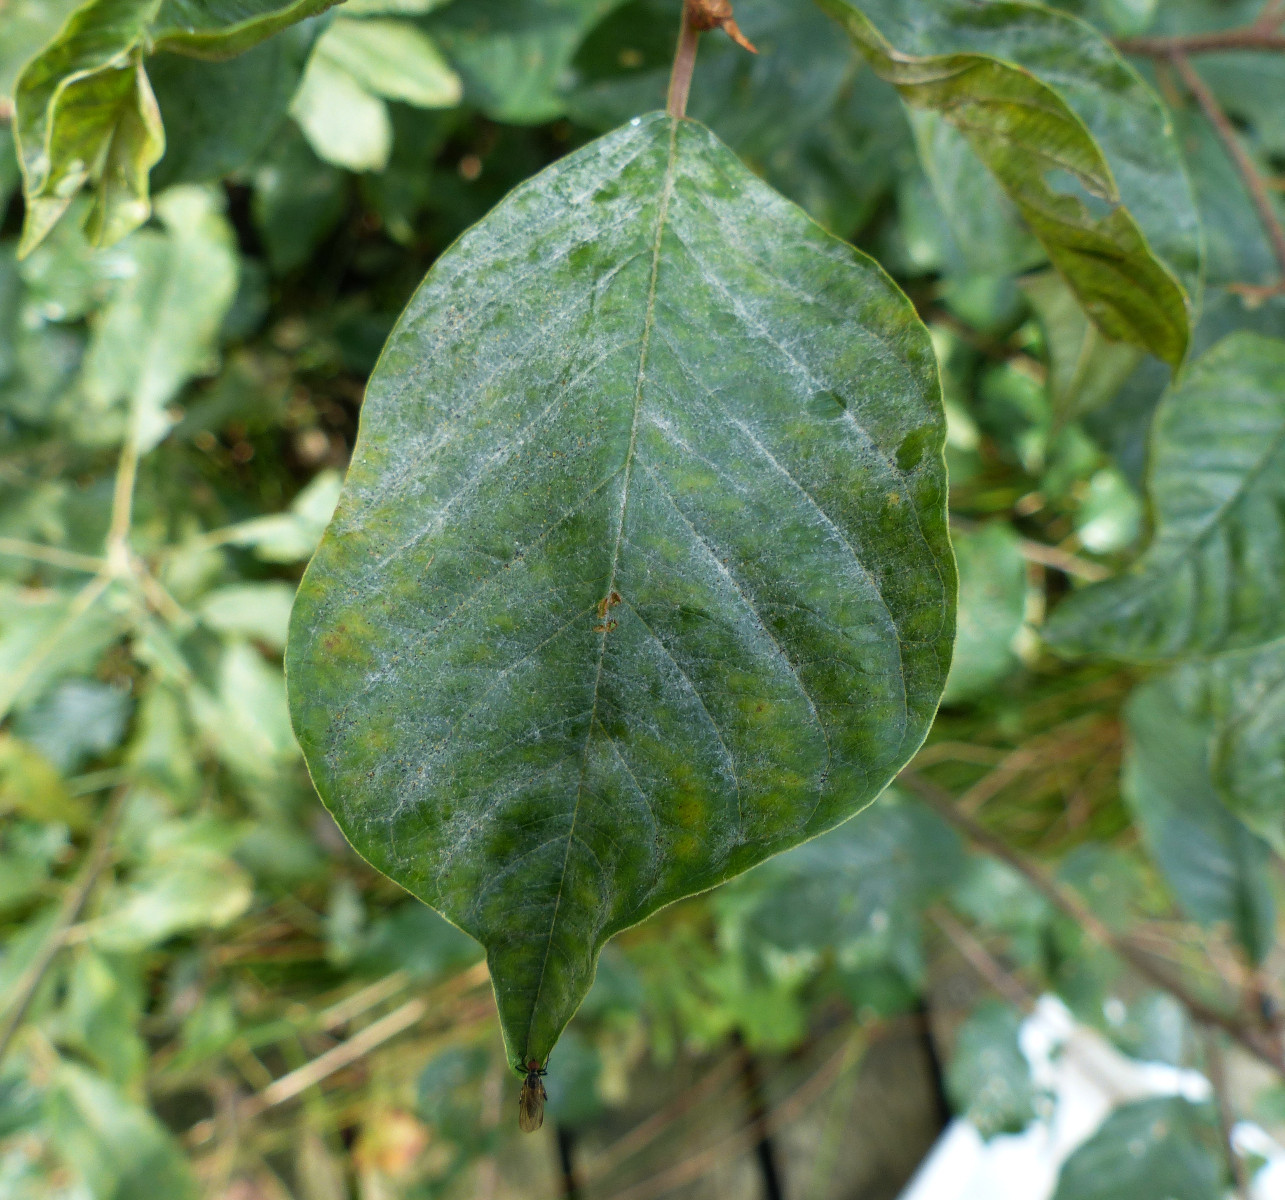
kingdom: Fungi
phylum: Ascomycota
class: Leotiomycetes
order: Helotiales
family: Erysiphaceae
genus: Erysiphe
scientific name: Erysiphe divaricata
